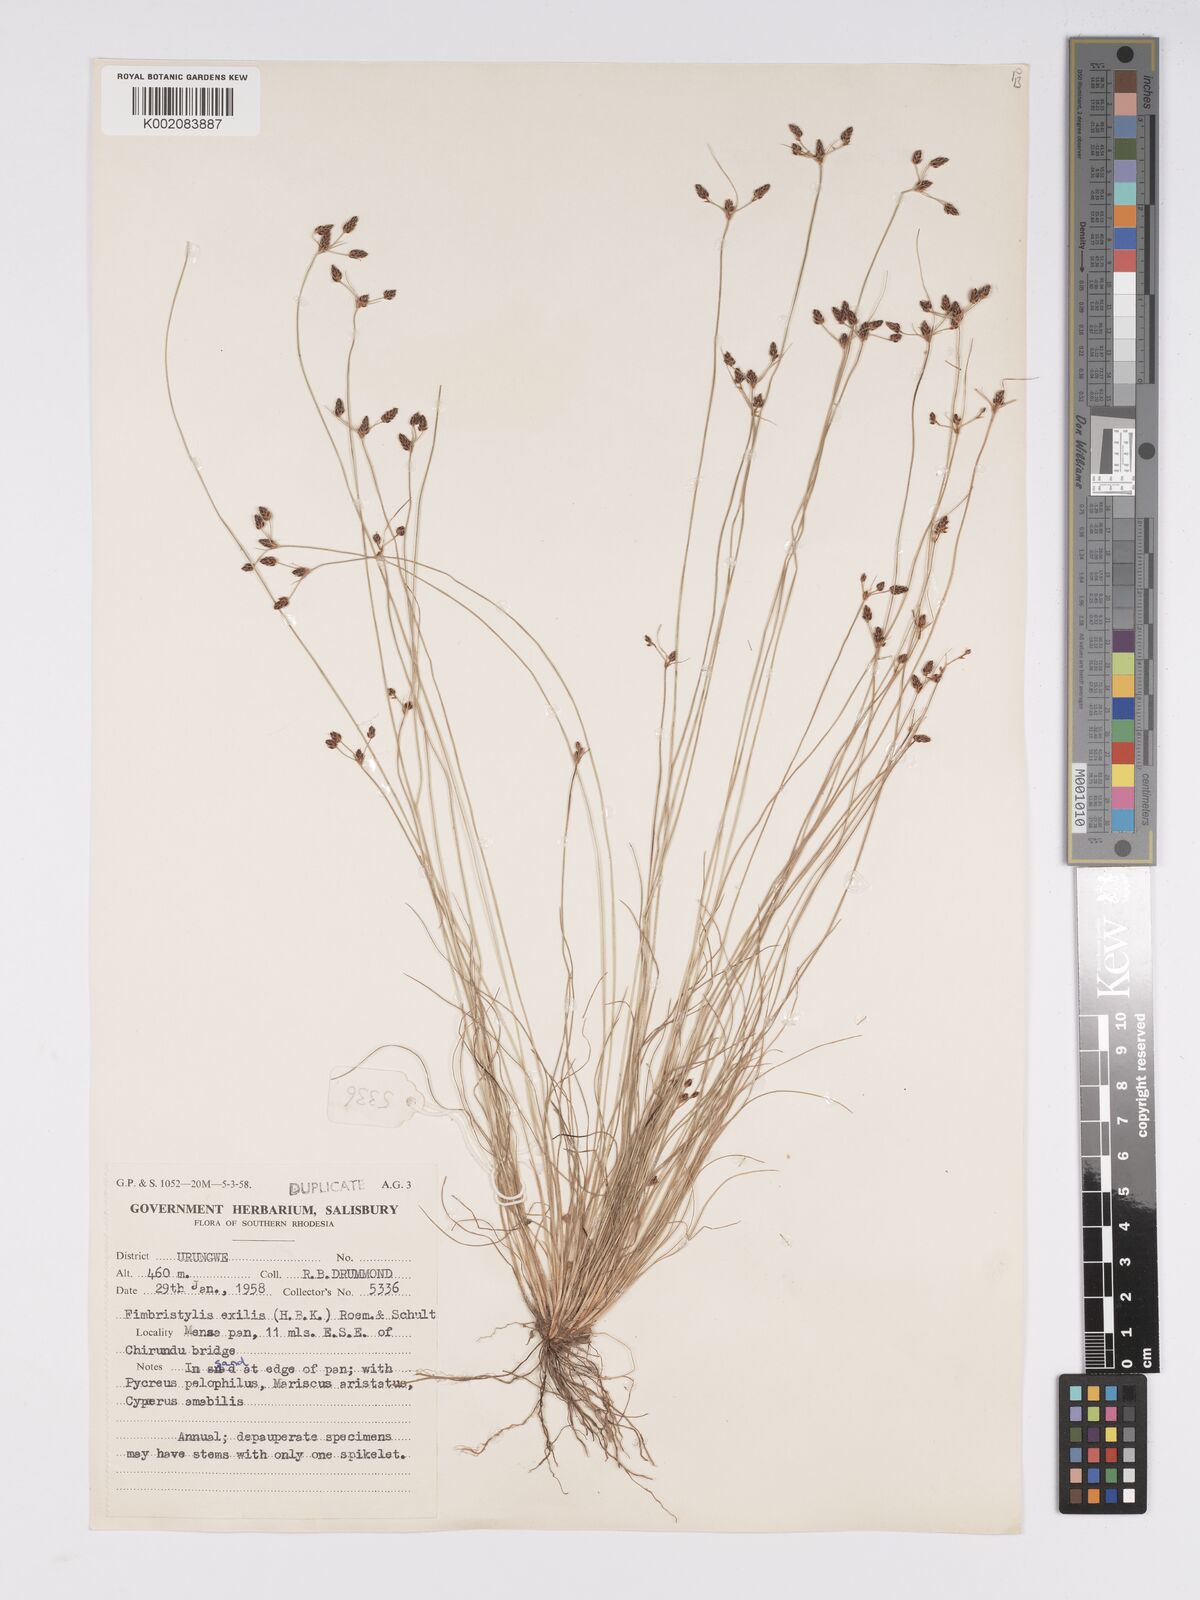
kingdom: Plantae
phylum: Tracheophyta
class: Liliopsida
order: Poales
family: Cyperaceae
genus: Bulbostylis
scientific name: Bulbostylis hispidula
